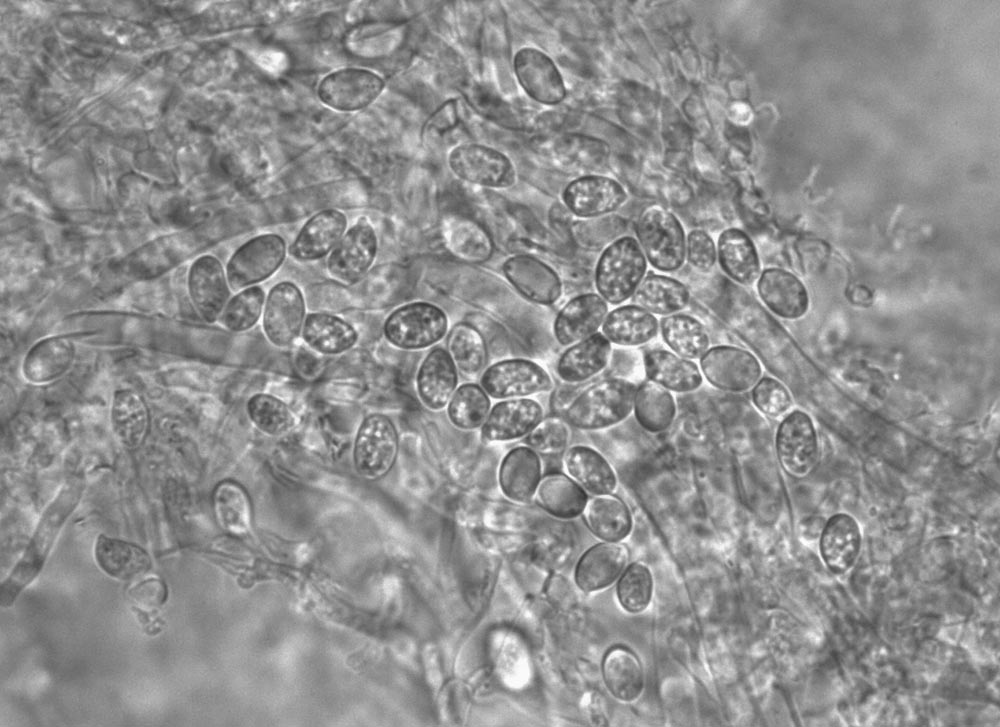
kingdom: Fungi
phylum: Basidiomycota
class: Agaricomycetes
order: Agaricales
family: Physalacriaceae
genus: Flammulina
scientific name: Flammulina populicola
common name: poppel-fløjlsfod
